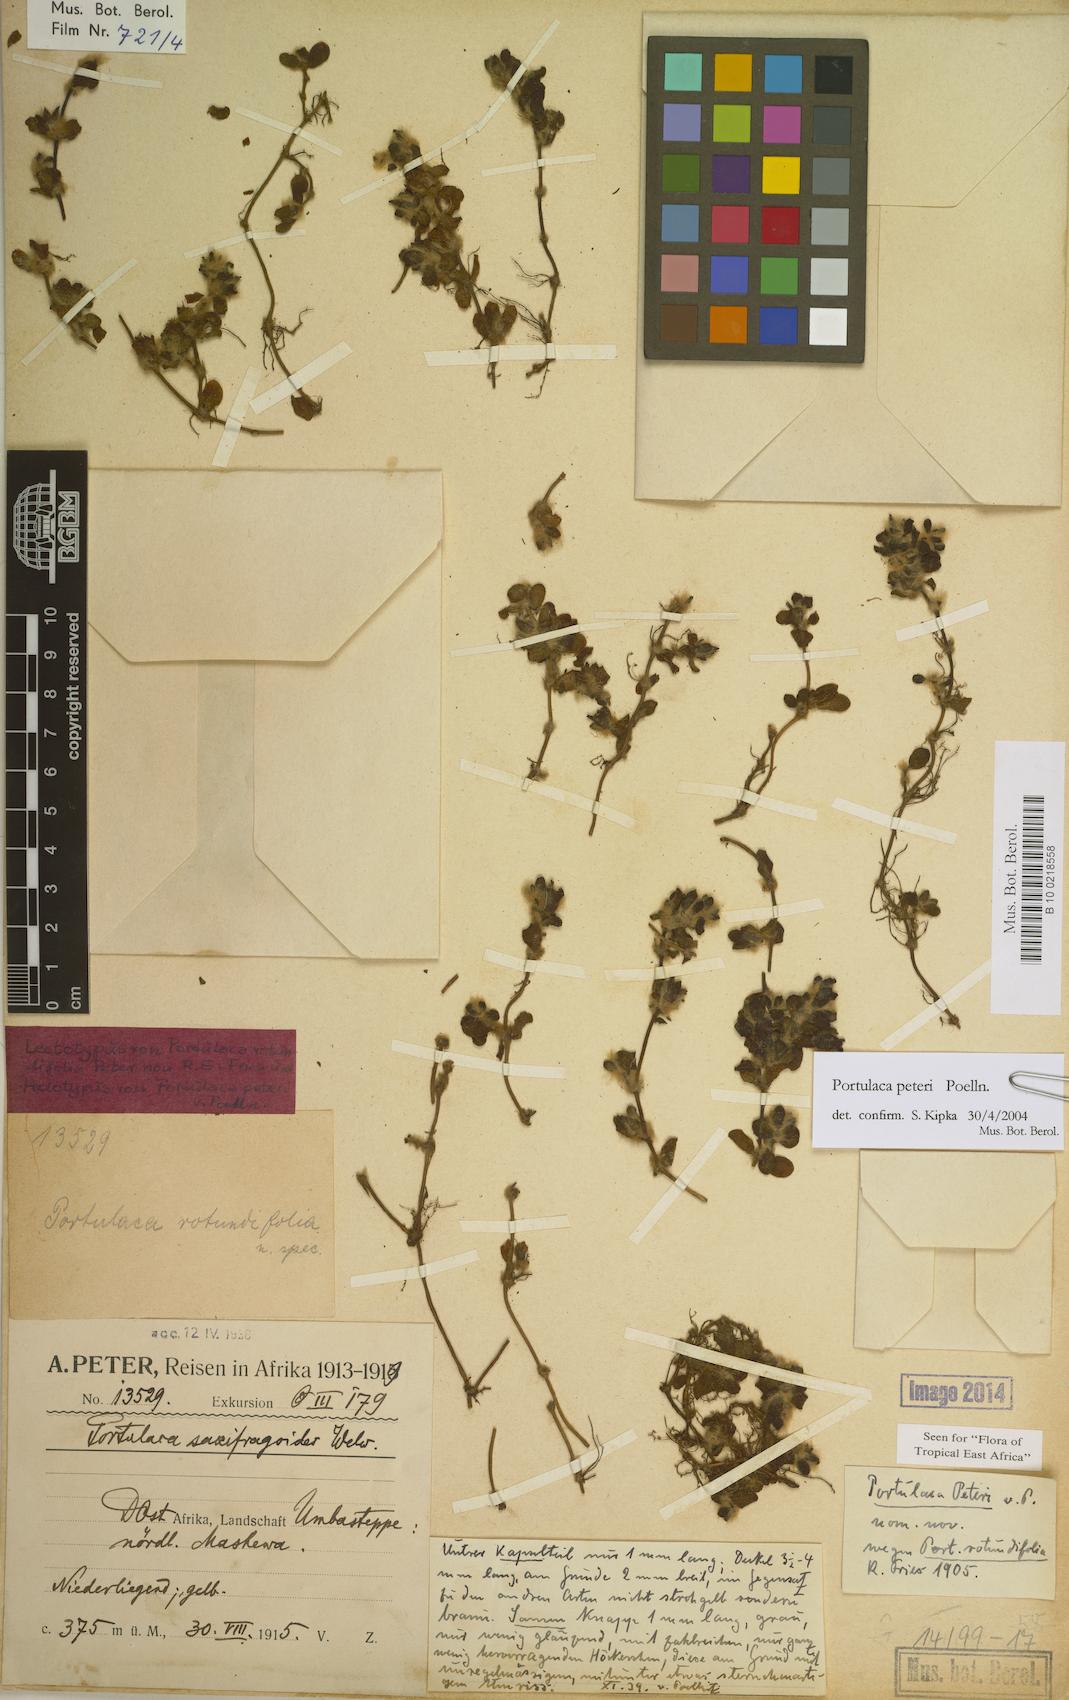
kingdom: Plantae
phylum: Tracheophyta
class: Magnoliopsida
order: Caryophyllales
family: Portulacaceae
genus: Portulaca
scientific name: Portulaca peteri
